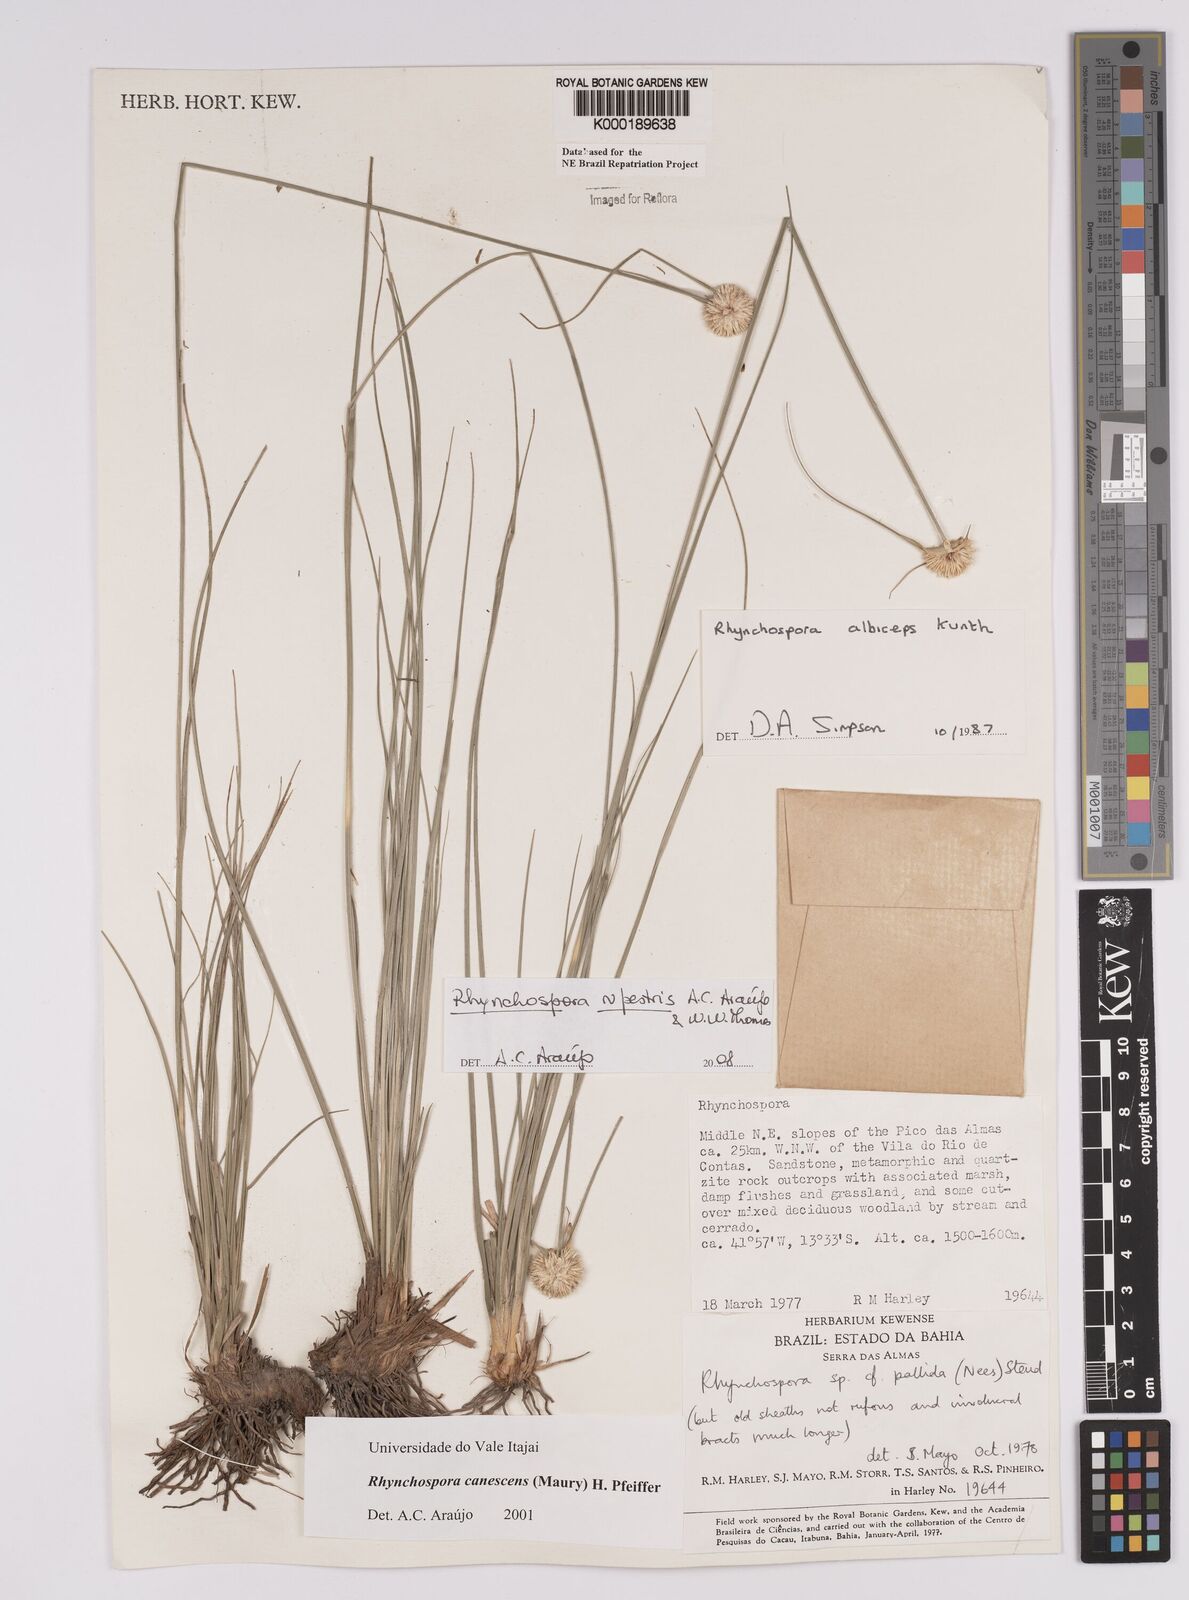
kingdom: Plantae
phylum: Tracheophyta
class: Liliopsida
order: Poales
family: Cyperaceae
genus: Rhynchospora
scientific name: Rhynchospora albiceps
